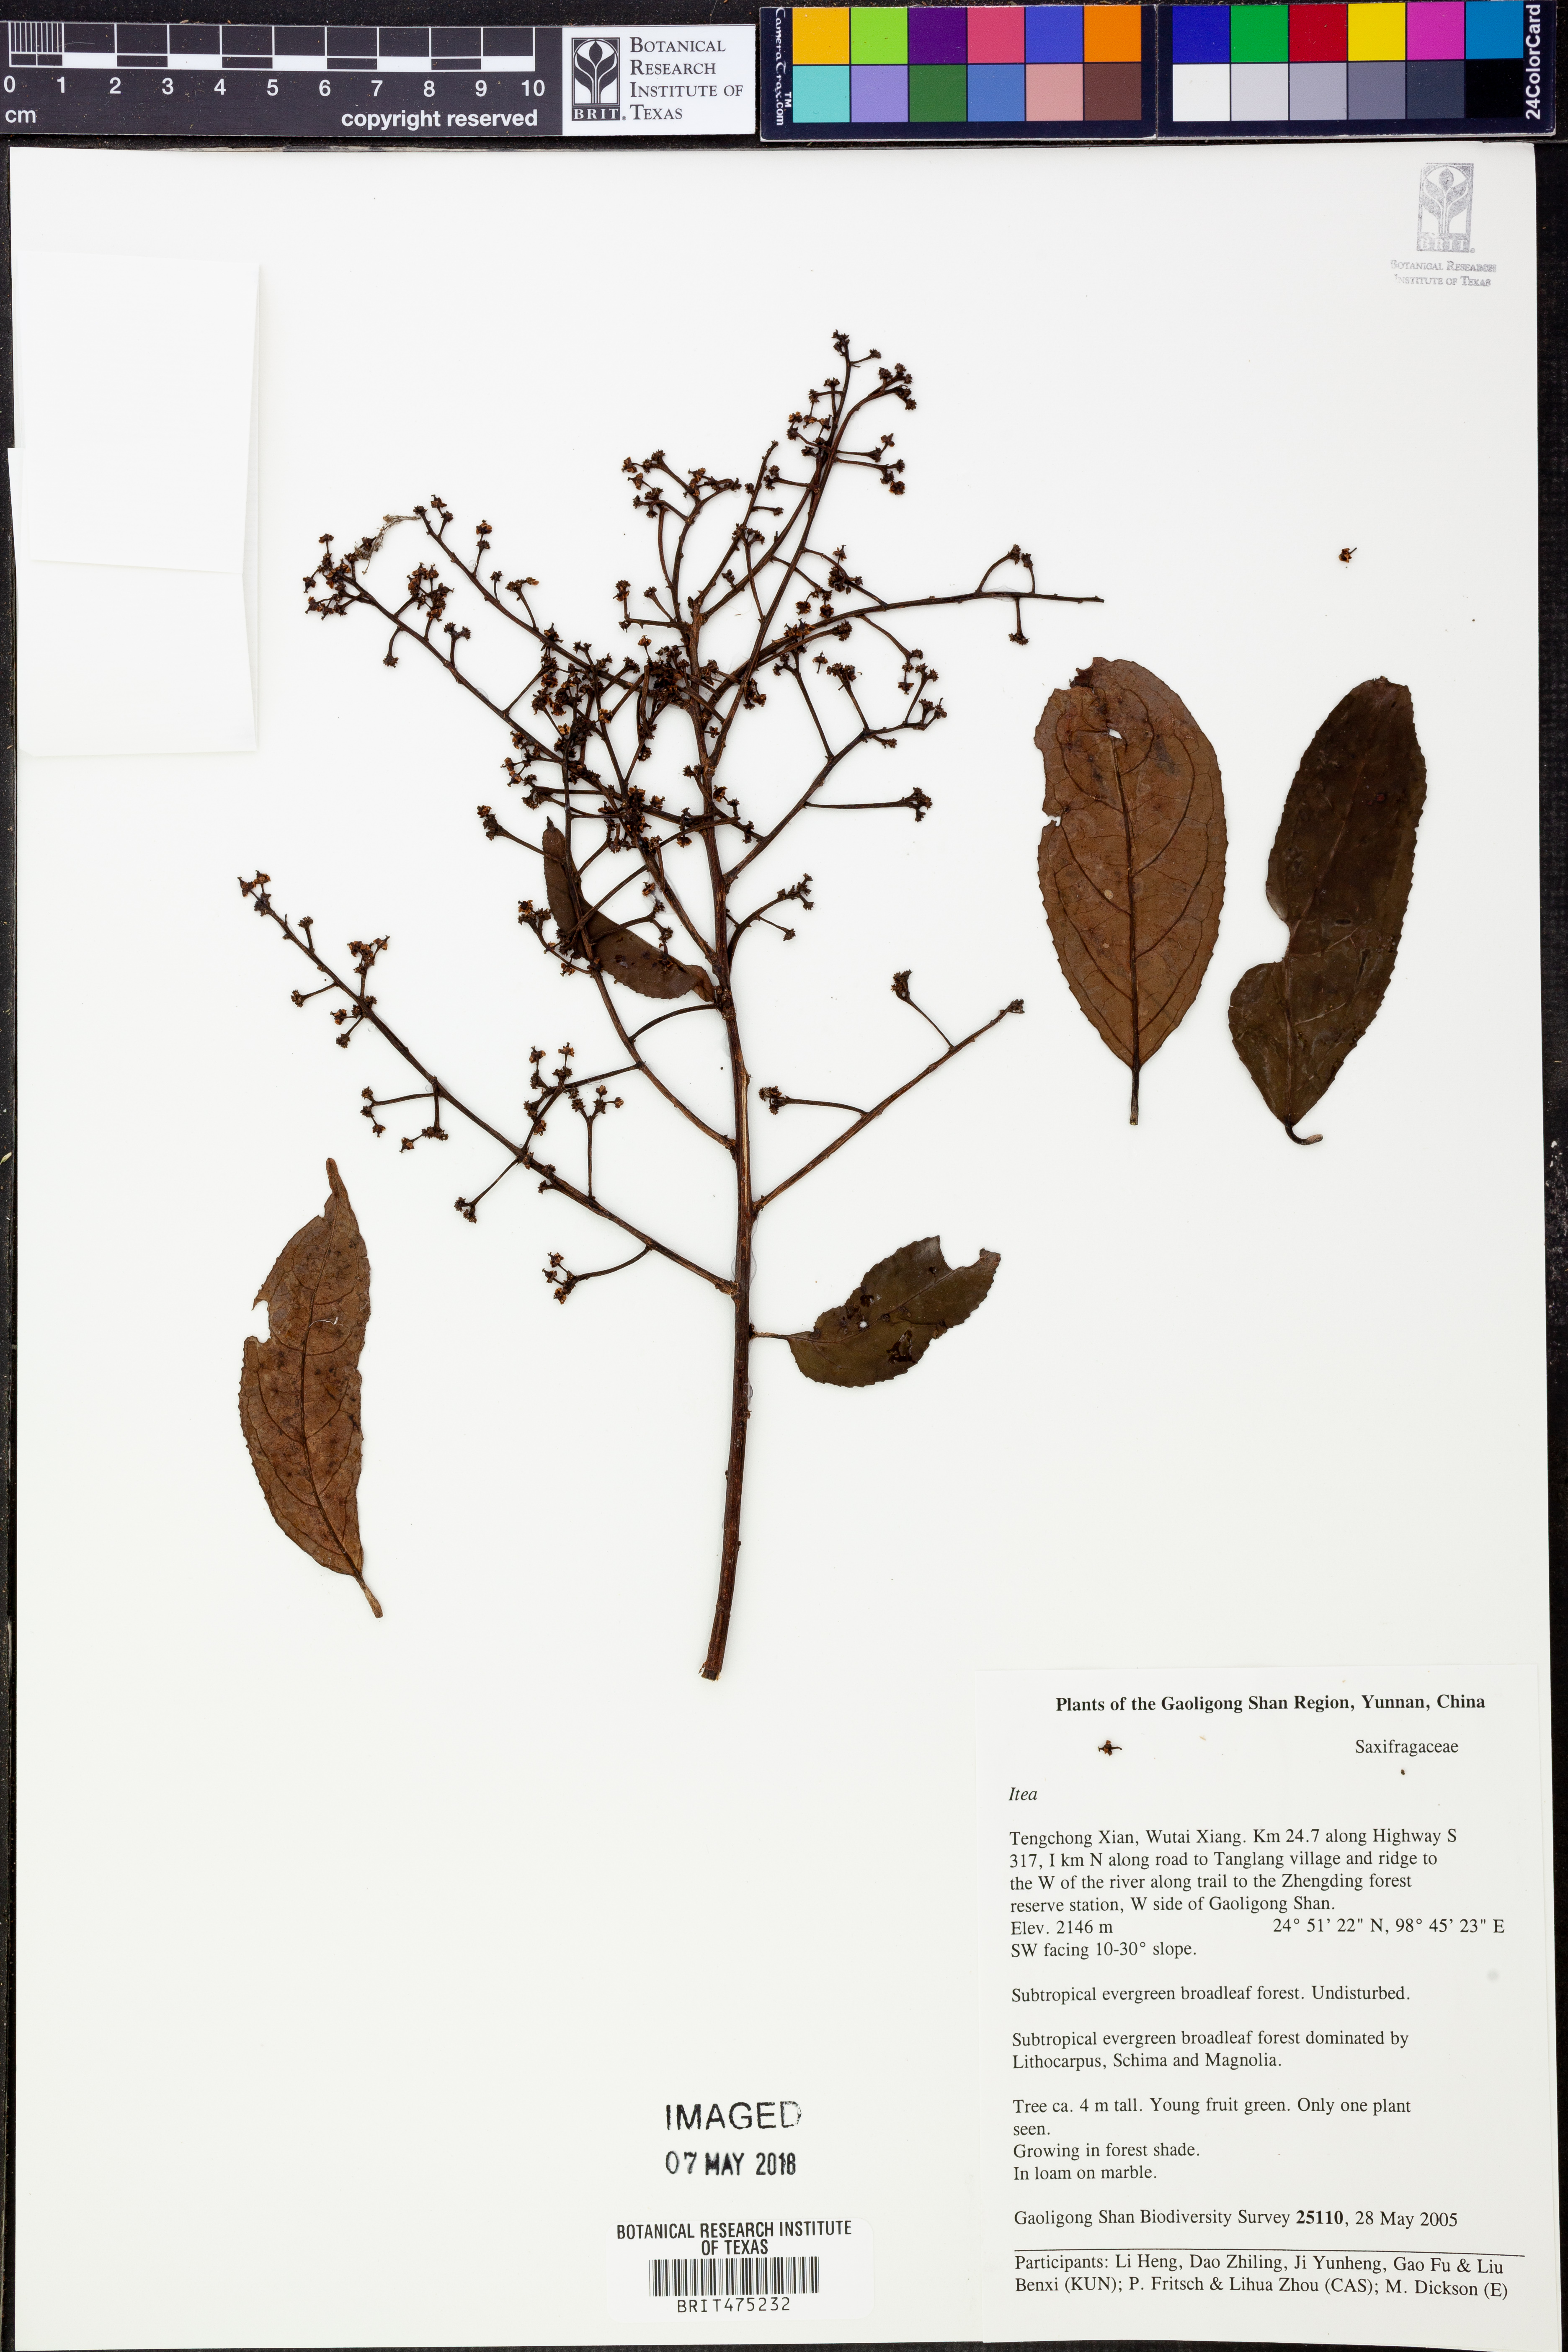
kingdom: Plantae
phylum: Tracheophyta
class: Magnoliopsida
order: Saxifragales
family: Iteaceae
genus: Itea
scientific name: Itea
